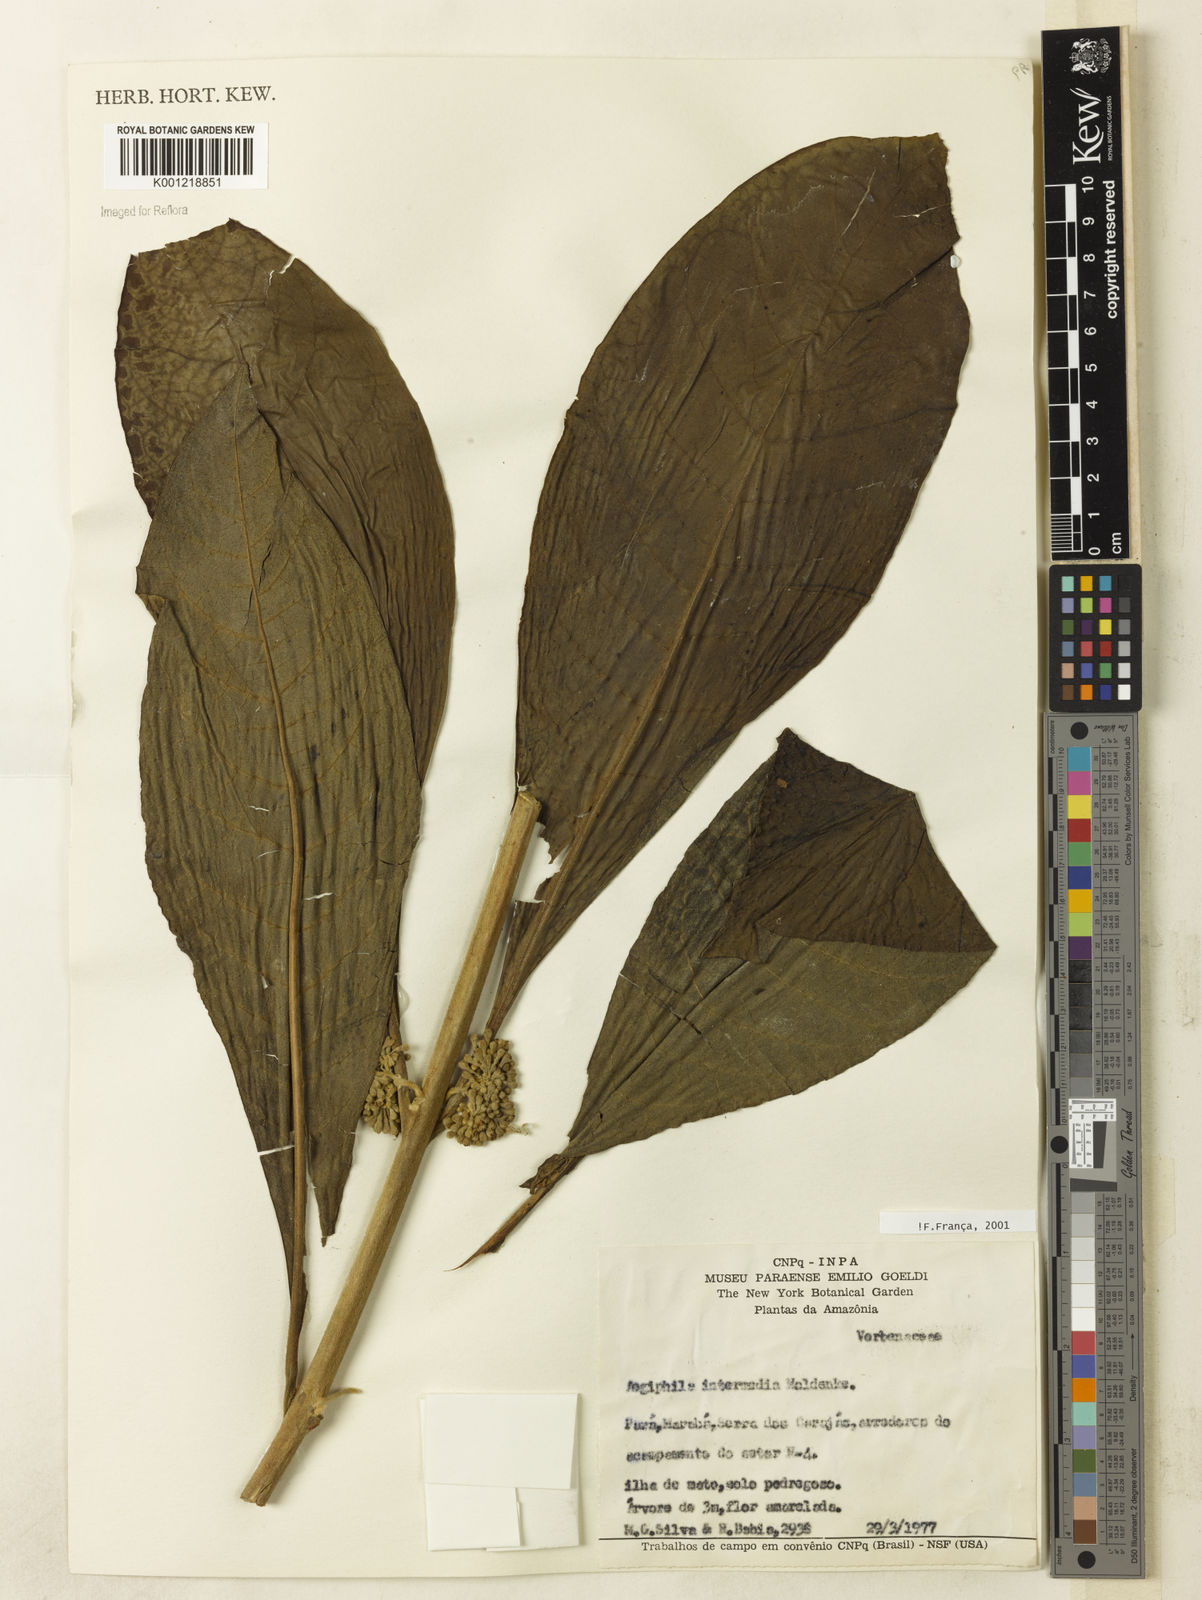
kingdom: Plantae
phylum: Tracheophyta
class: Magnoliopsida
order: Lamiales
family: Lamiaceae
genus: Aegiphila
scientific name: Aegiphila intermedia
